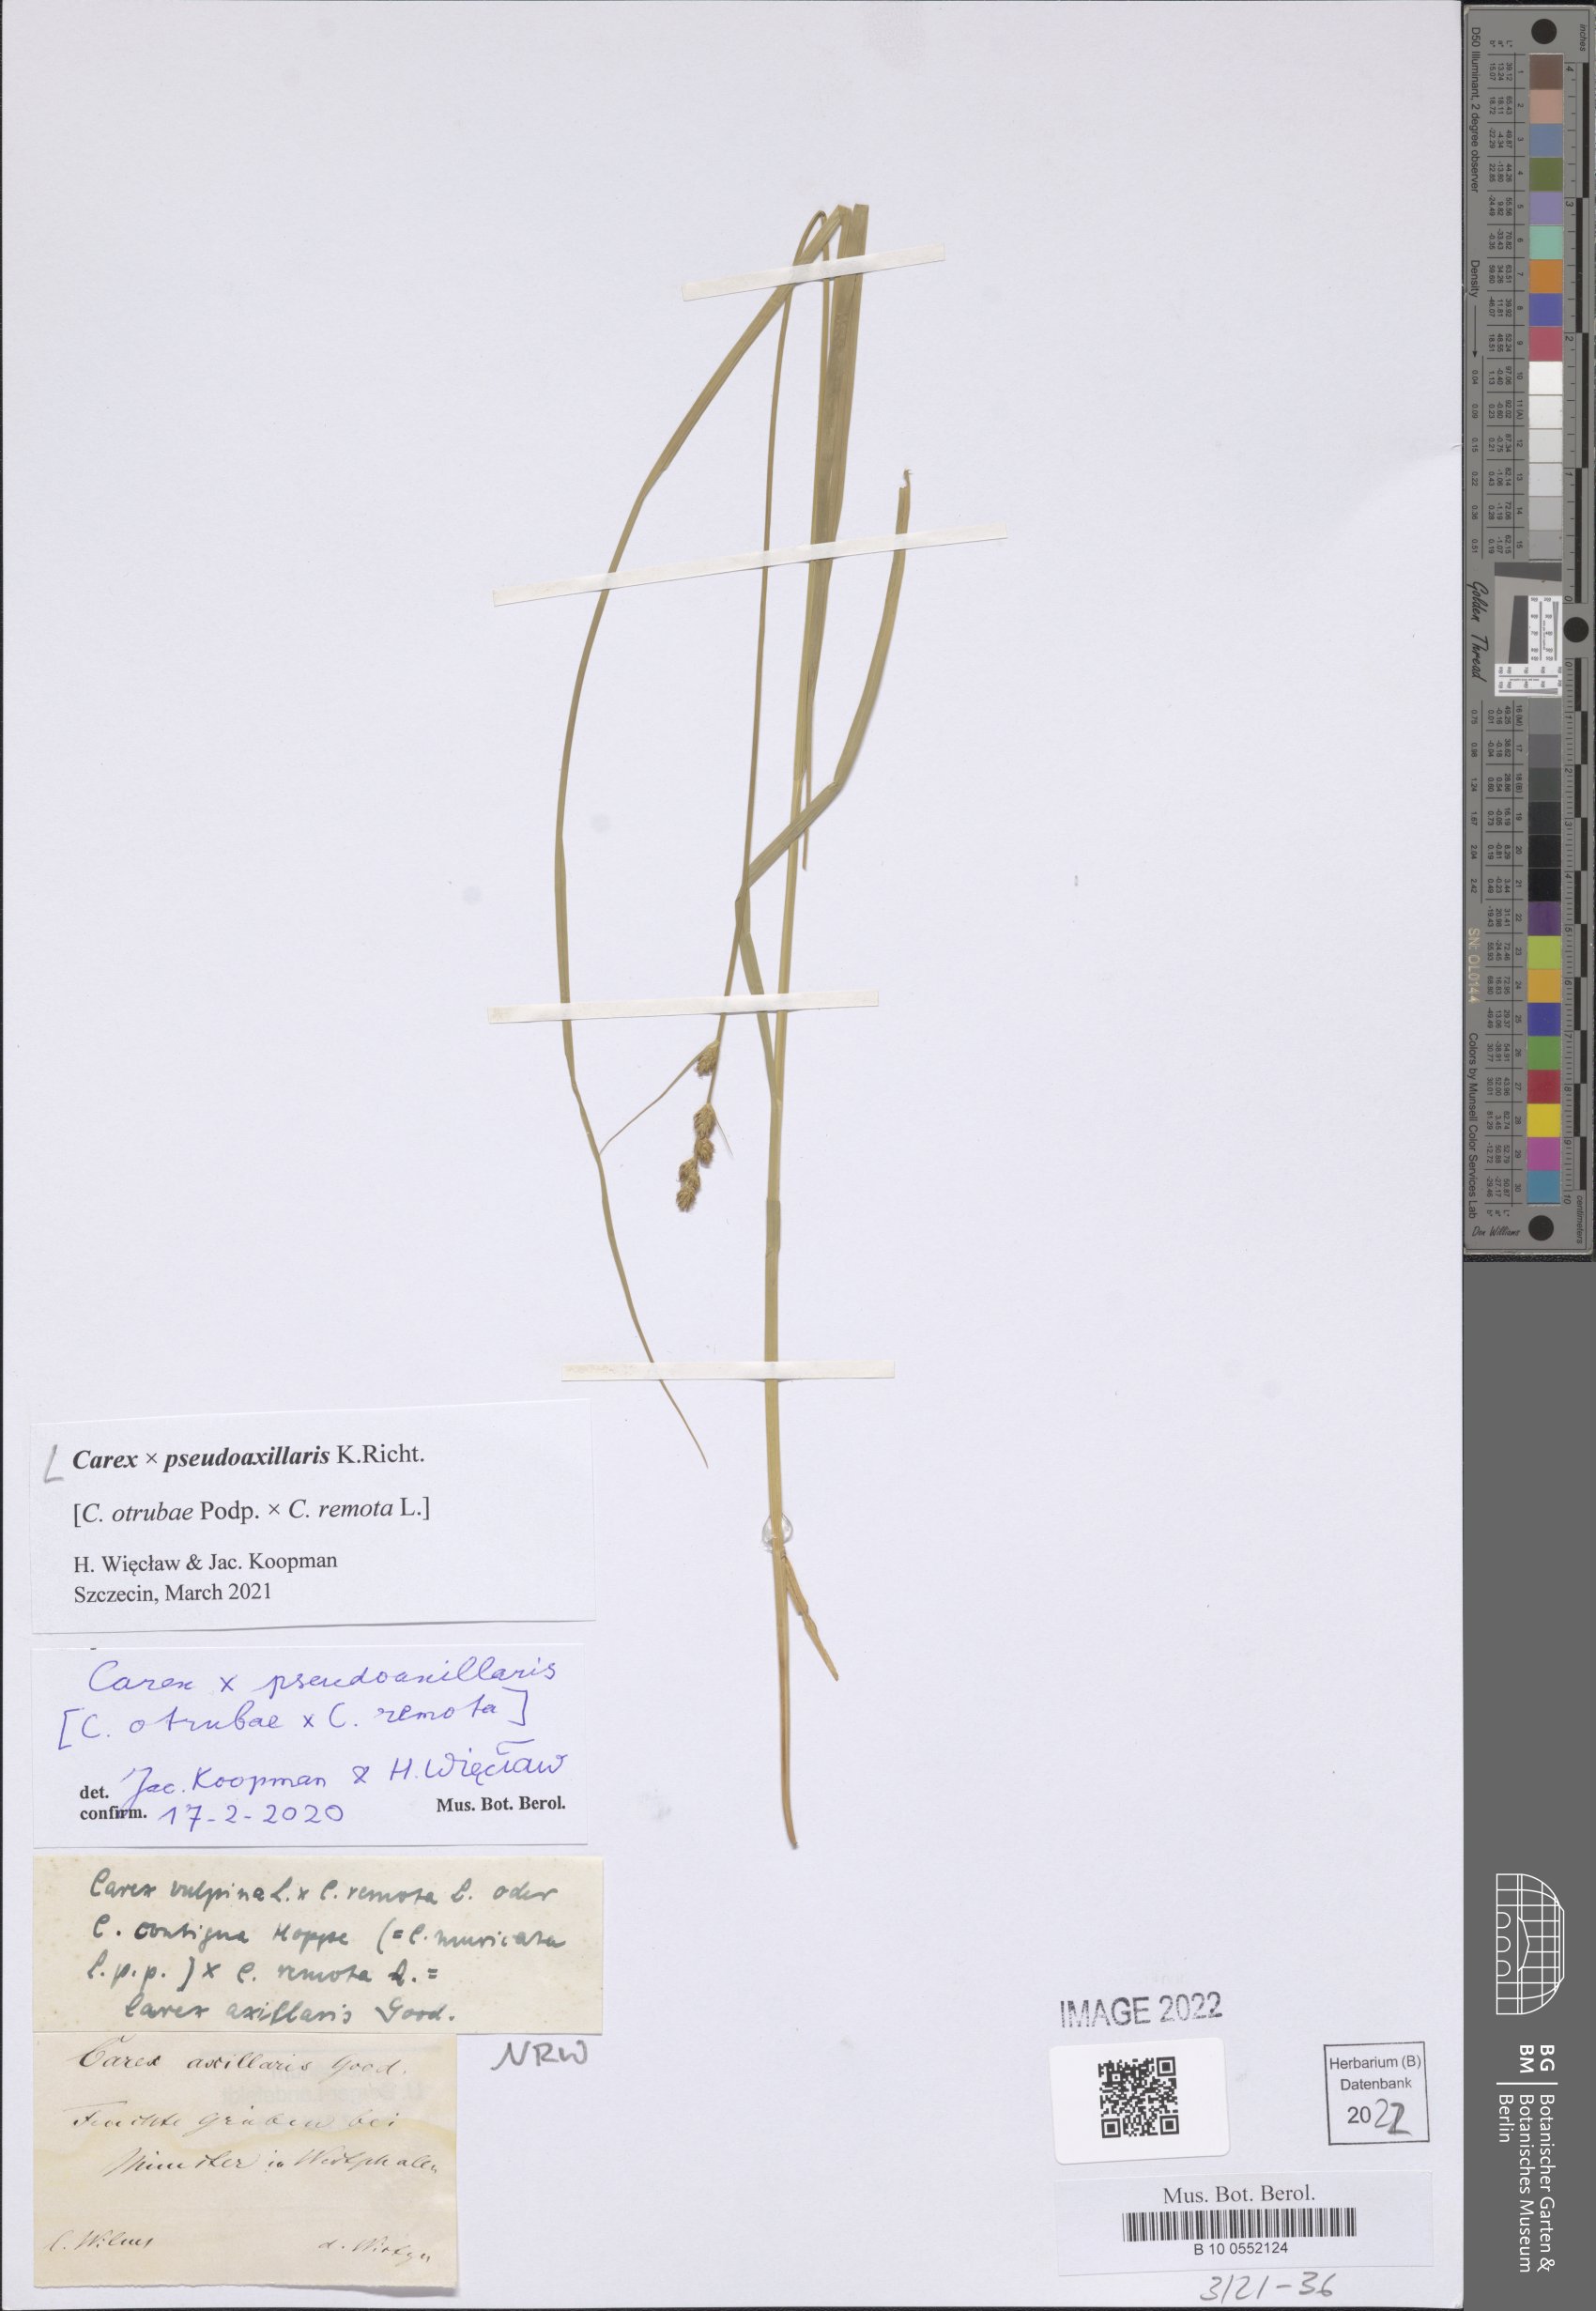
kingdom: Plantae
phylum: Tracheophyta
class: Liliopsida
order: Poales
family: Cyperaceae
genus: Carex
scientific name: Carex pseudoaxillaris
